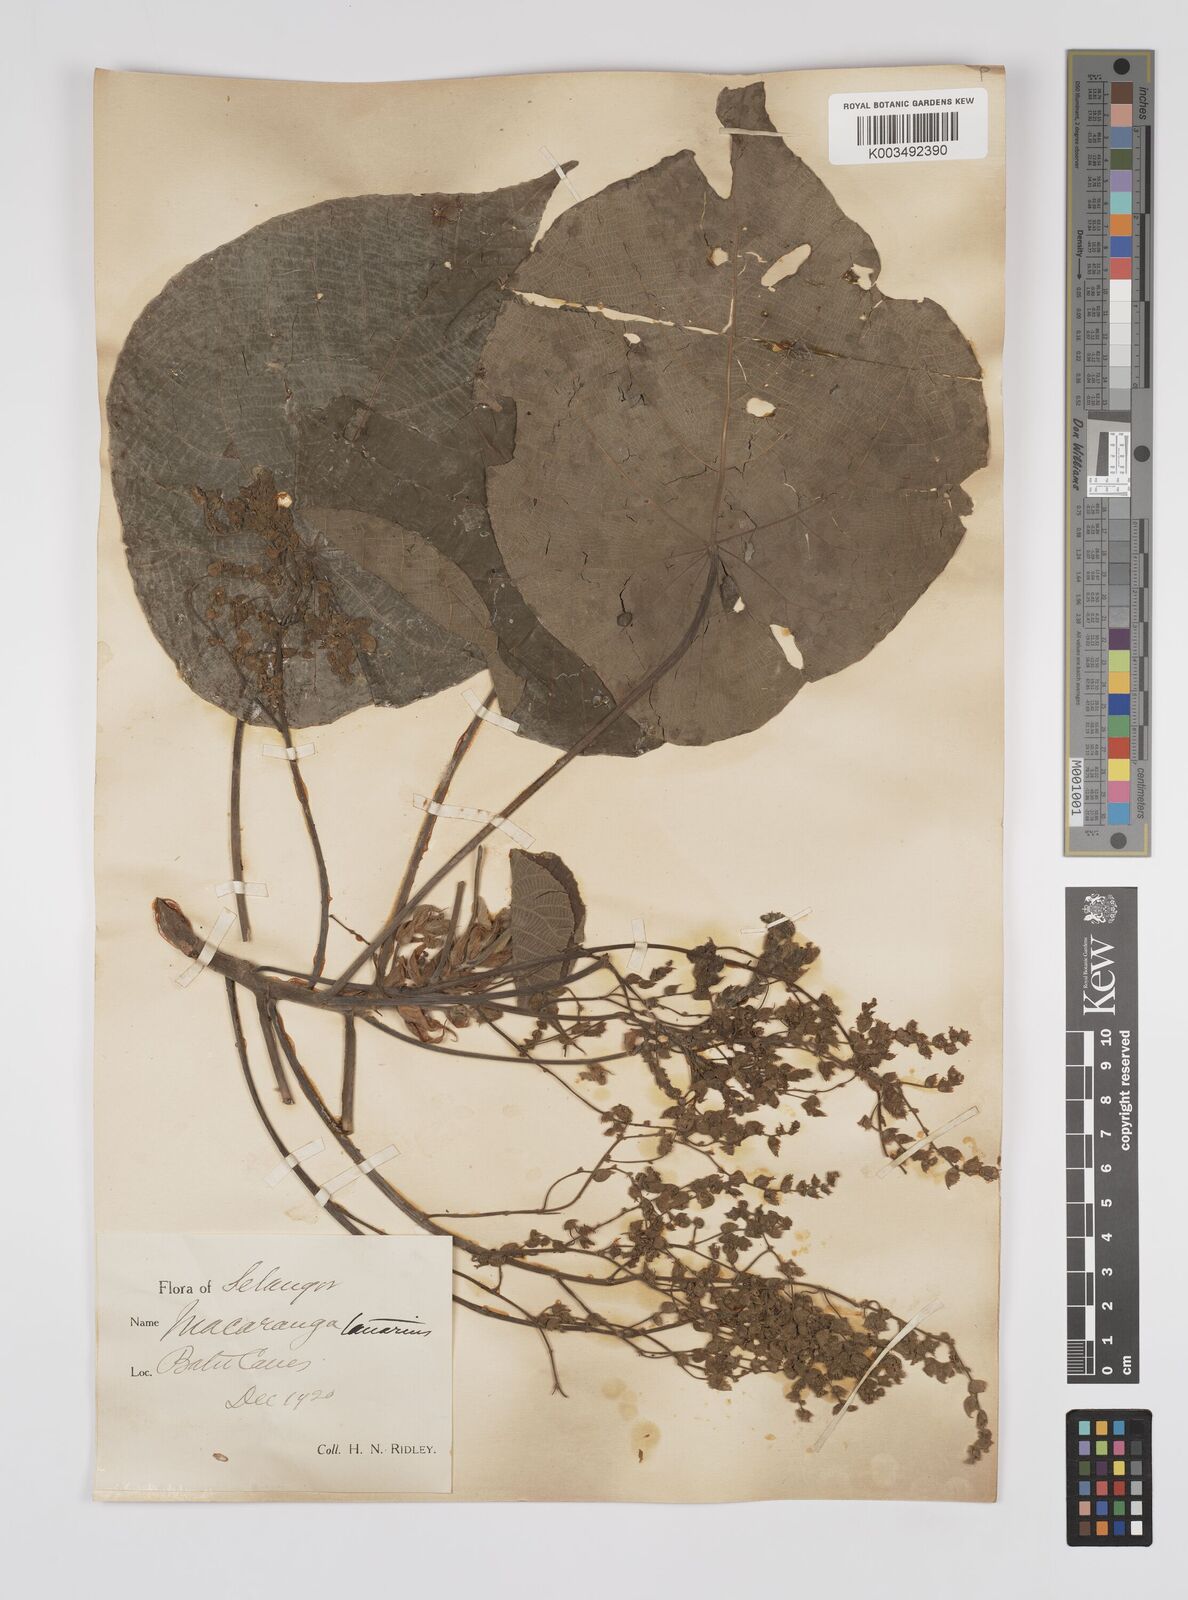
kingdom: Plantae
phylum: Tracheophyta
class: Magnoliopsida
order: Malpighiales
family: Euphorbiaceae
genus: Macaranga
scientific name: Macaranga tanarius
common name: Parasol leaf tree
